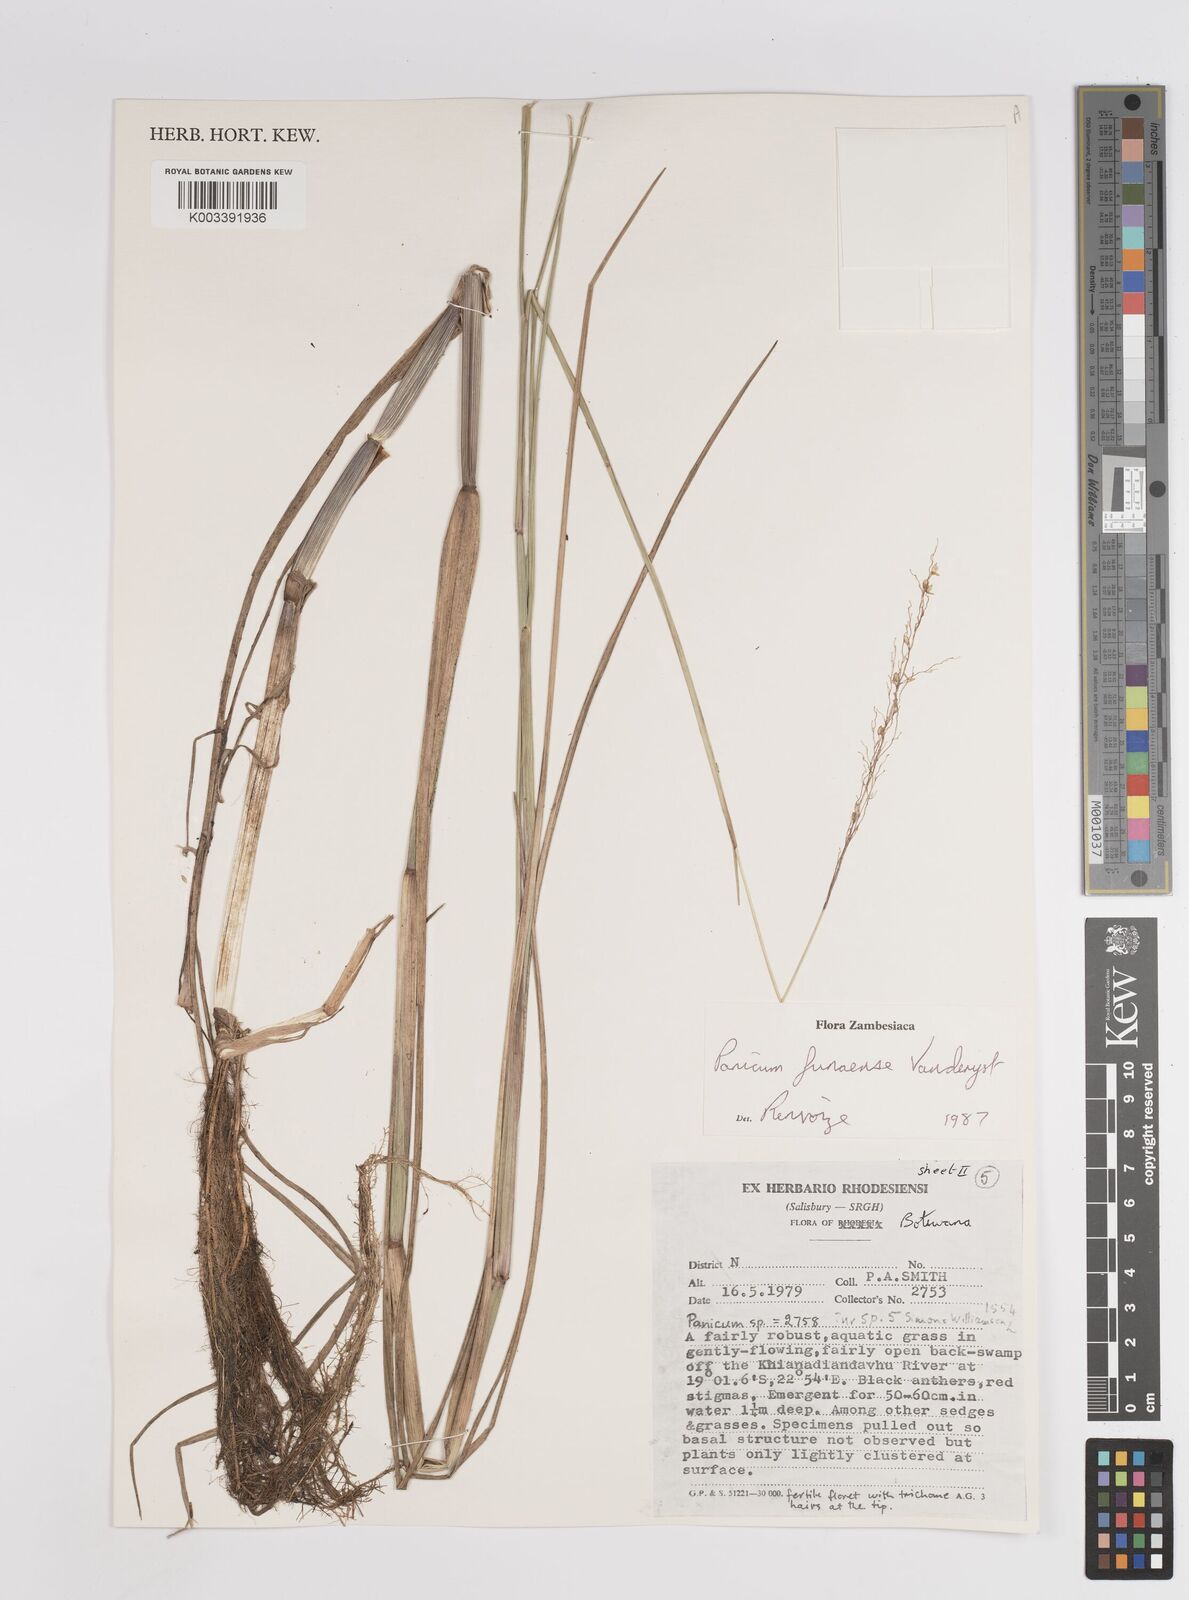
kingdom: Plantae
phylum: Tracheophyta
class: Liliopsida
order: Poales
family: Poaceae
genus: Panicum
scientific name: Panicum spongiosum
